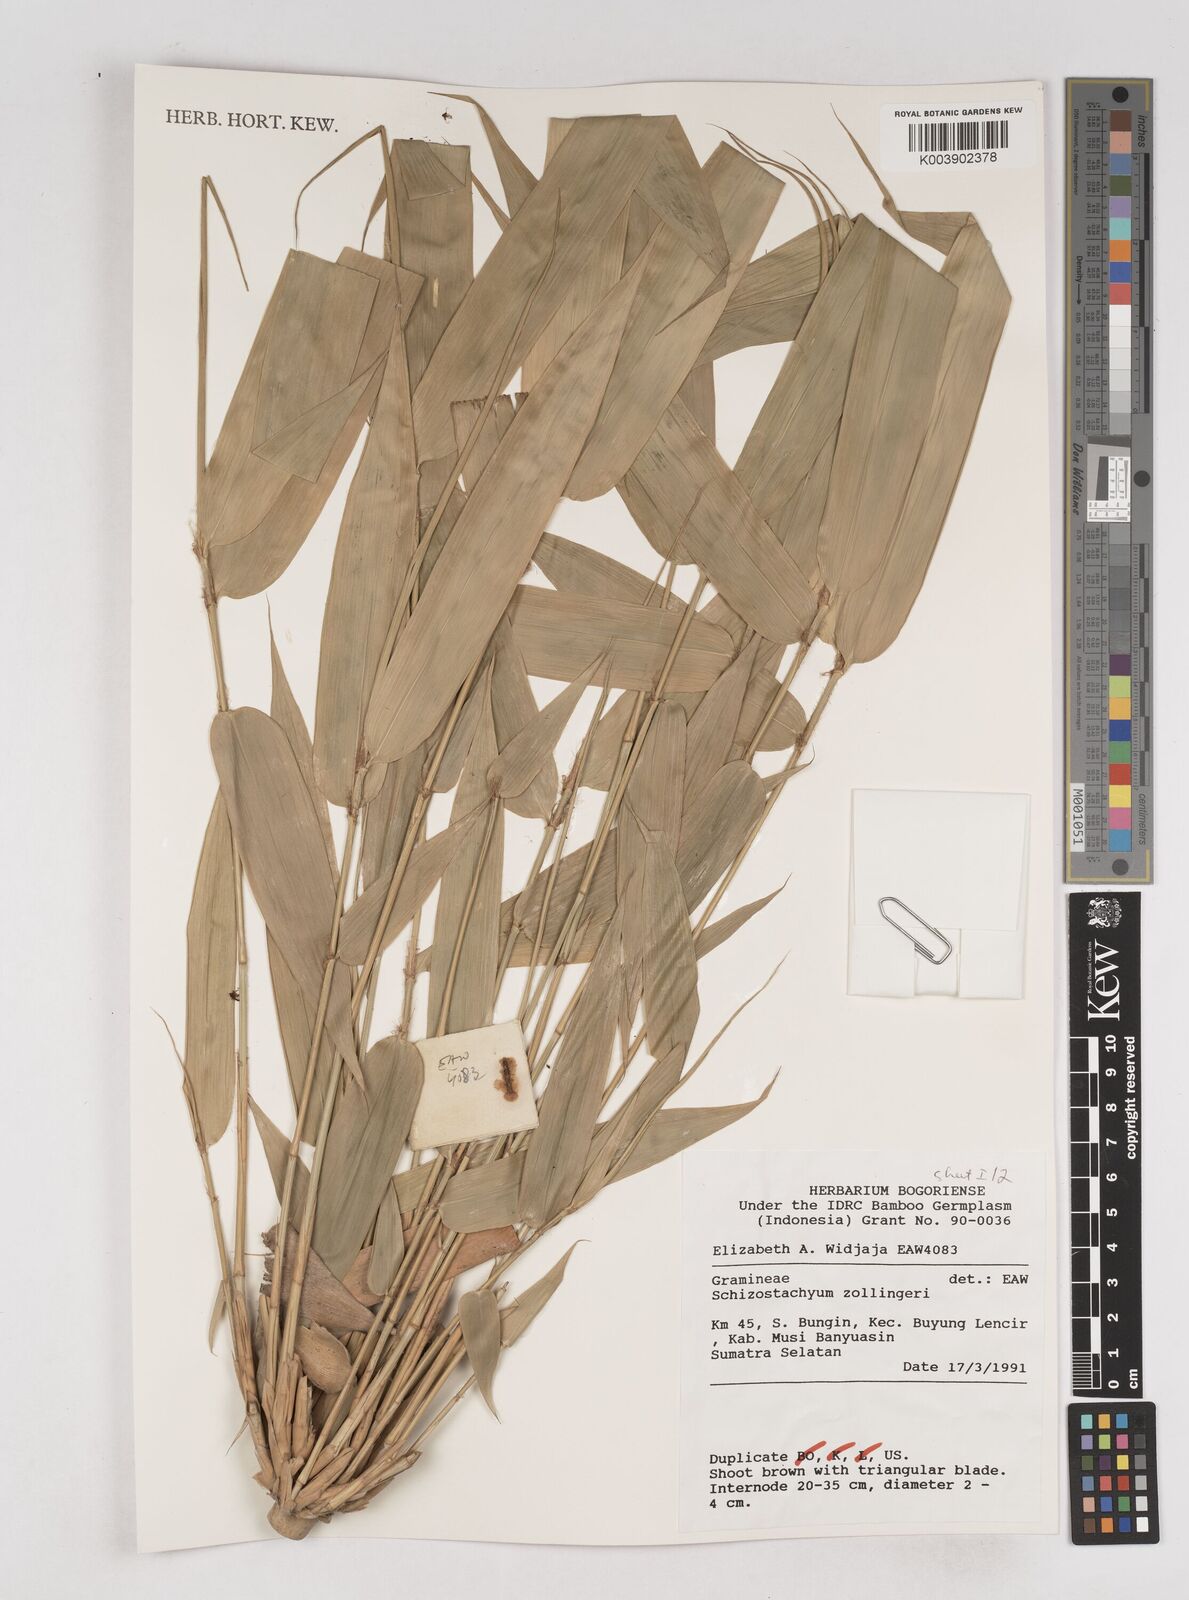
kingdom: Plantae
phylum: Tracheophyta
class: Liliopsida
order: Poales
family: Poaceae
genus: Schizostachyum
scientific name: Schizostachyum zollingeri
